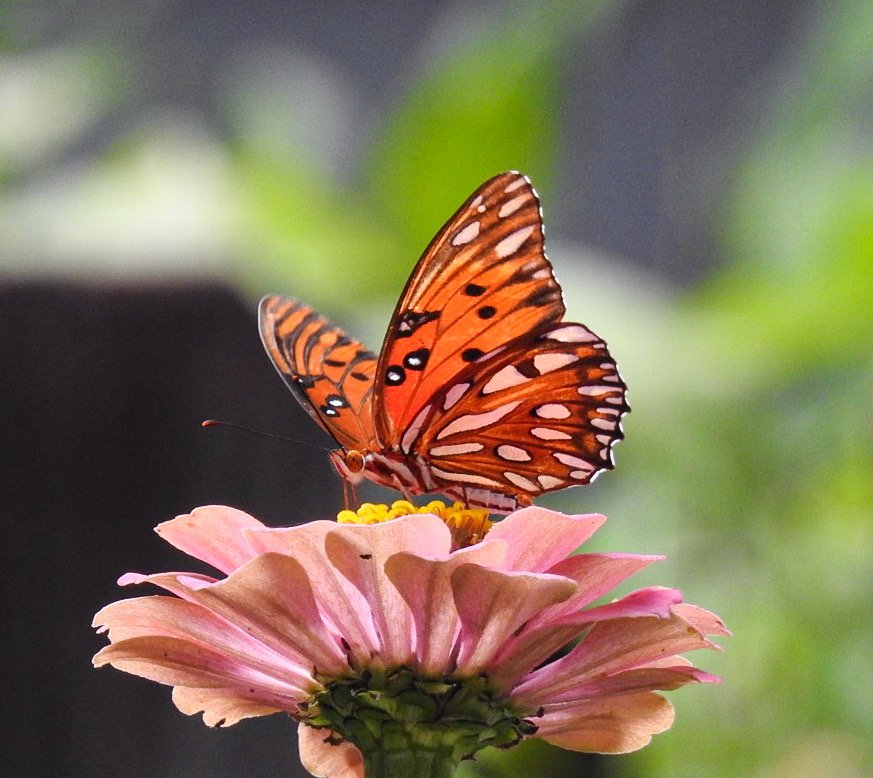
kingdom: Animalia
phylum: Arthropoda
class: Insecta
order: Lepidoptera
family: Nymphalidae
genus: Dione
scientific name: Dione vanillae
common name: Gulf Fritillary
